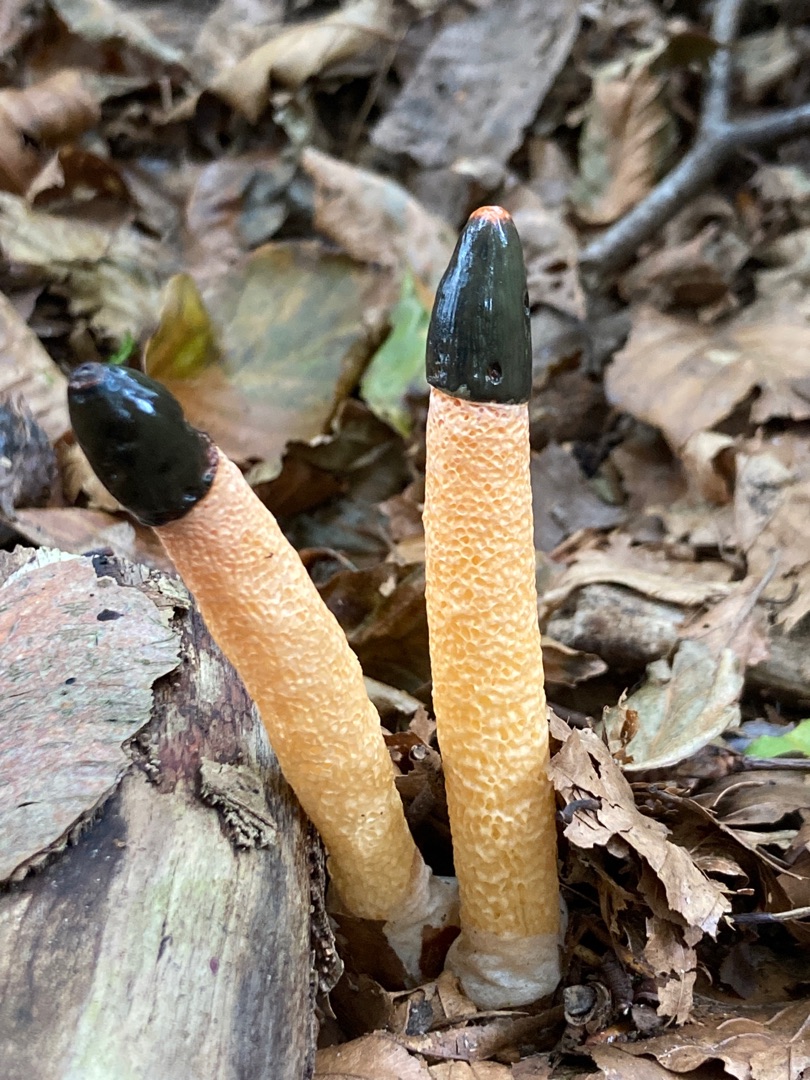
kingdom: Fungi
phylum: Basidiomycota
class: Agaricomycetes
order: Phallales
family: Phallaceae
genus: Mutinus
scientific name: Mutinus caninus
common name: Hunde-stinksvamp
